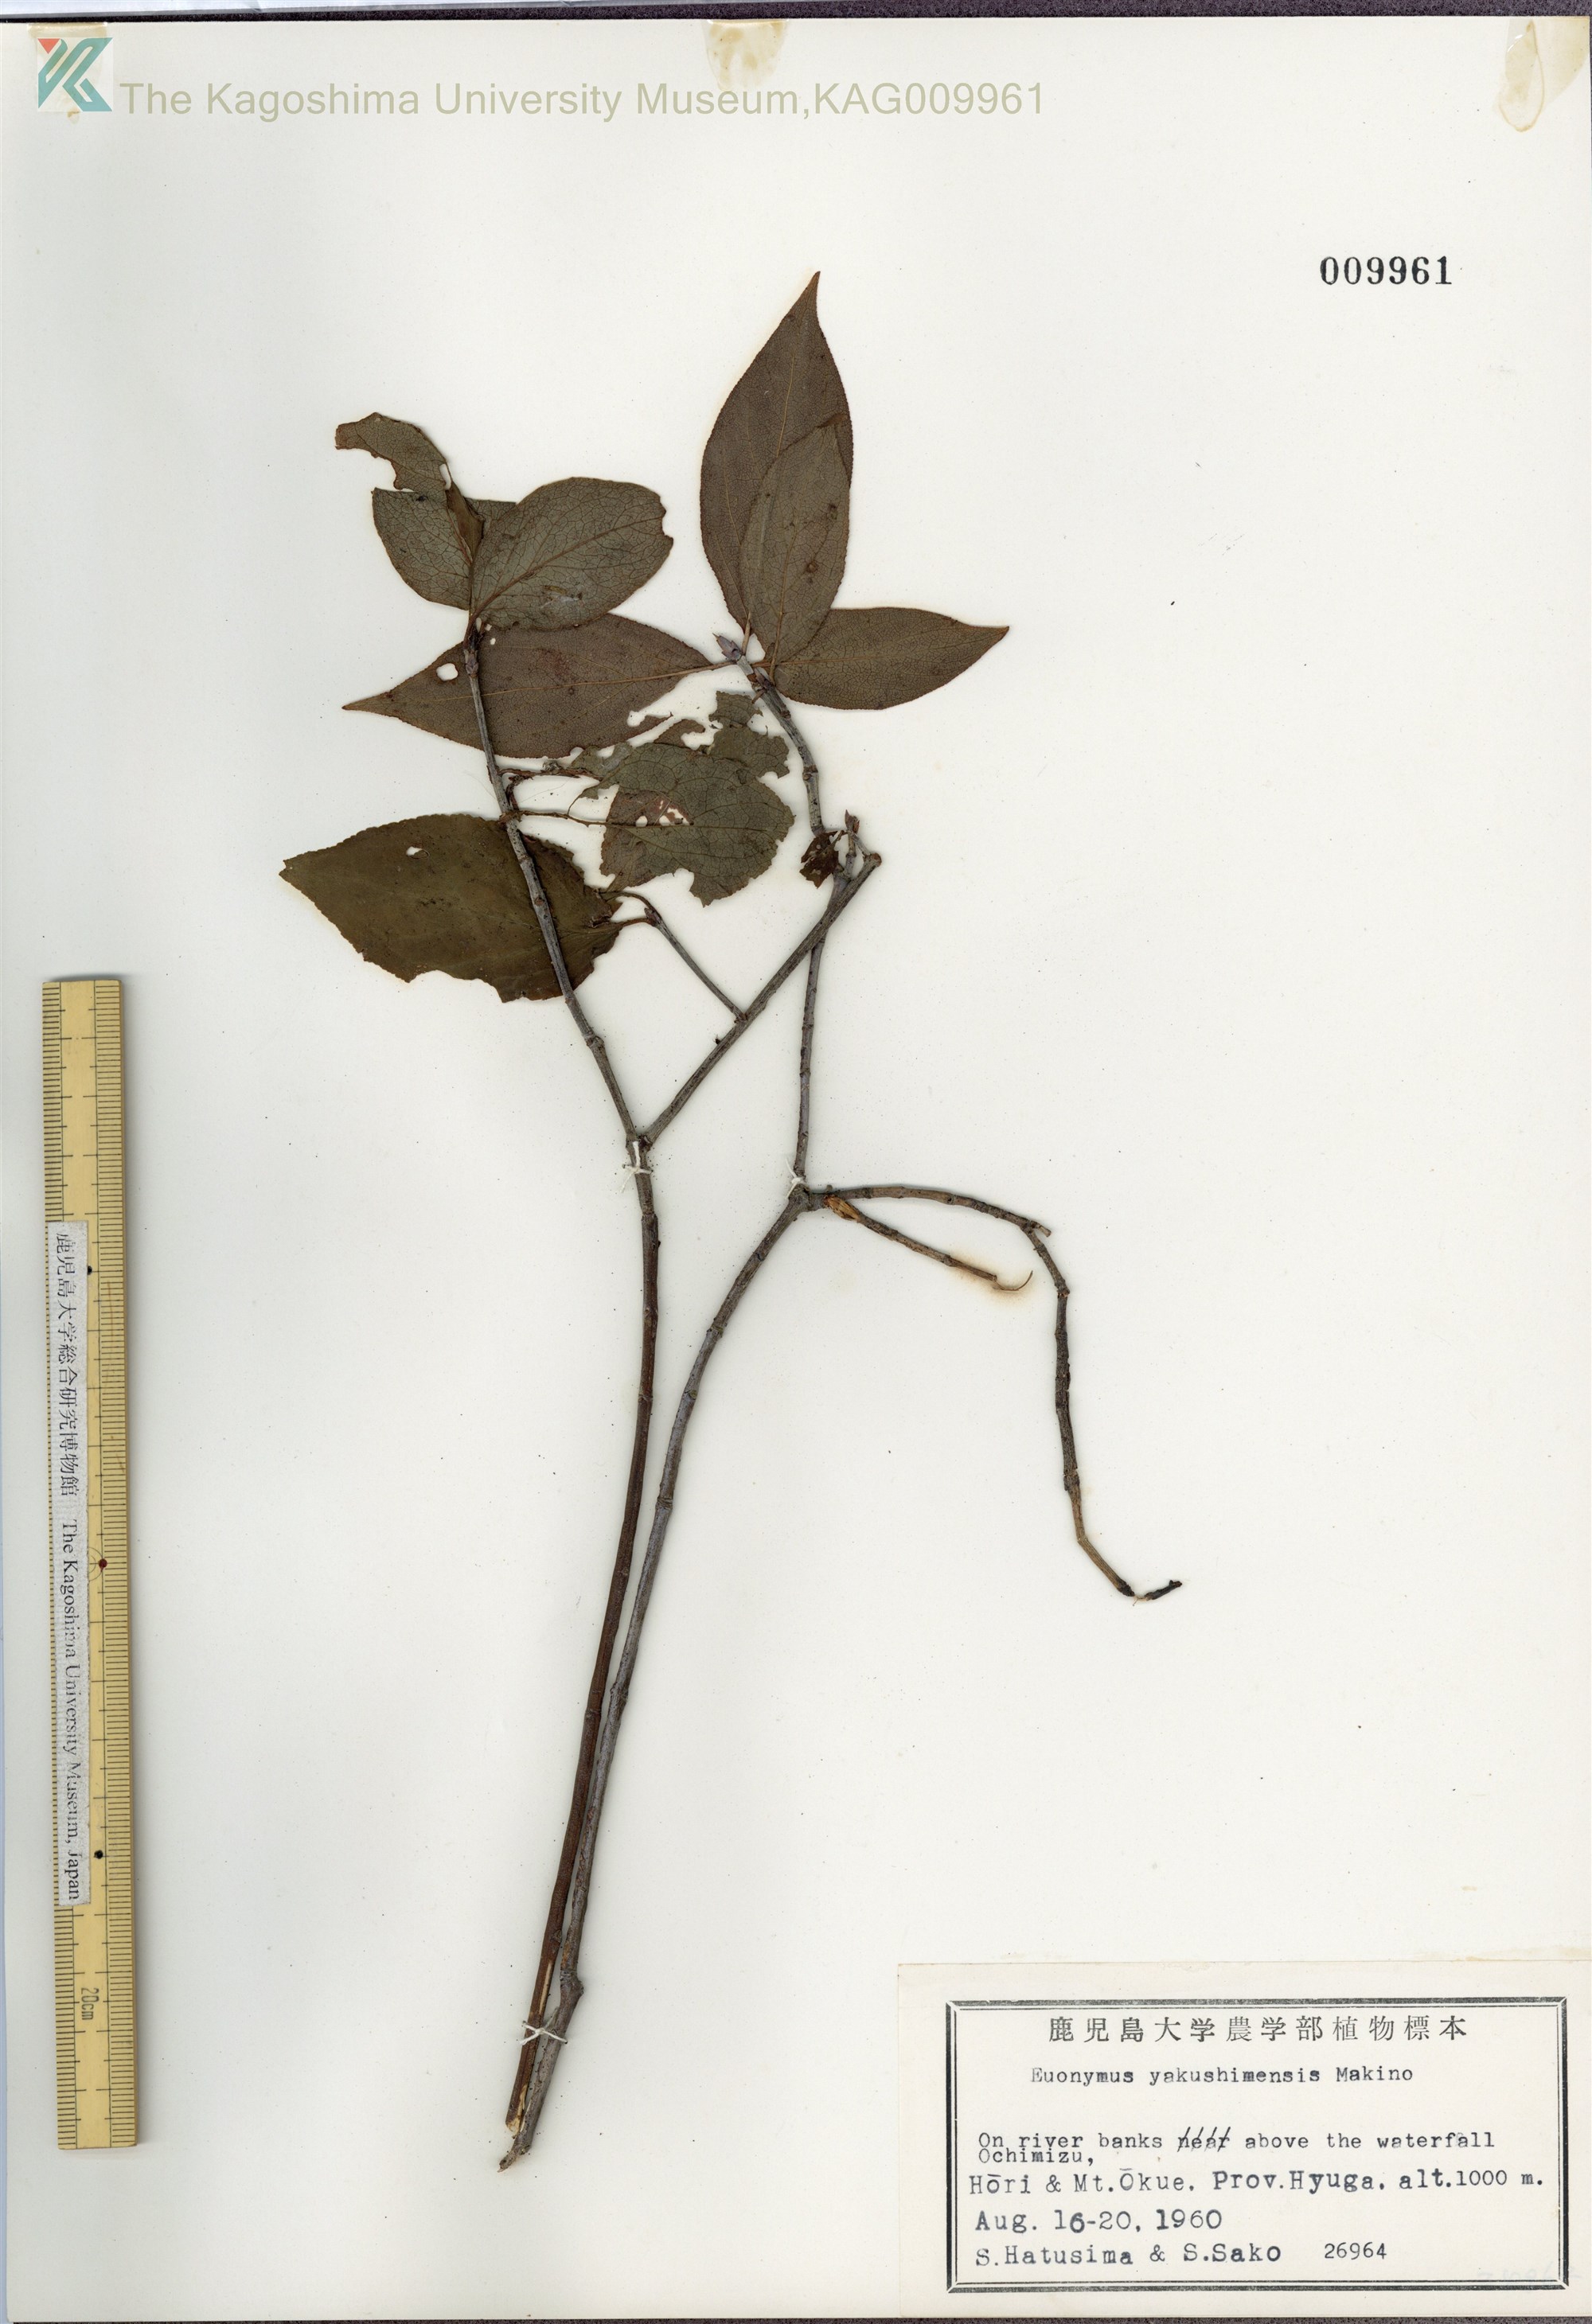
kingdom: Plantae
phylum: Tracheophyta
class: Magnoliopsida
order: Celastrales
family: Celastraceae
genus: Euonymus
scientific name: Euonymus yakushimensis
